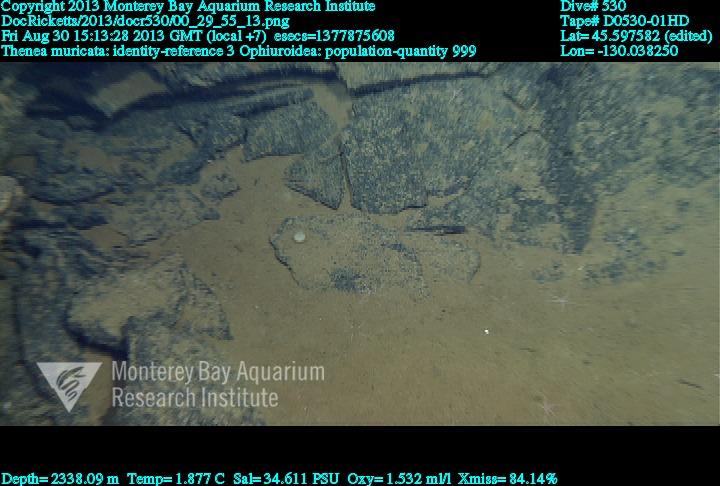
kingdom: Animalia
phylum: Porifera
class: Demospongiae
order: Tetractinellida
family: Theneidae
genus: Thenea
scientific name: Thenea muricata
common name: Mulberry horny sponge
